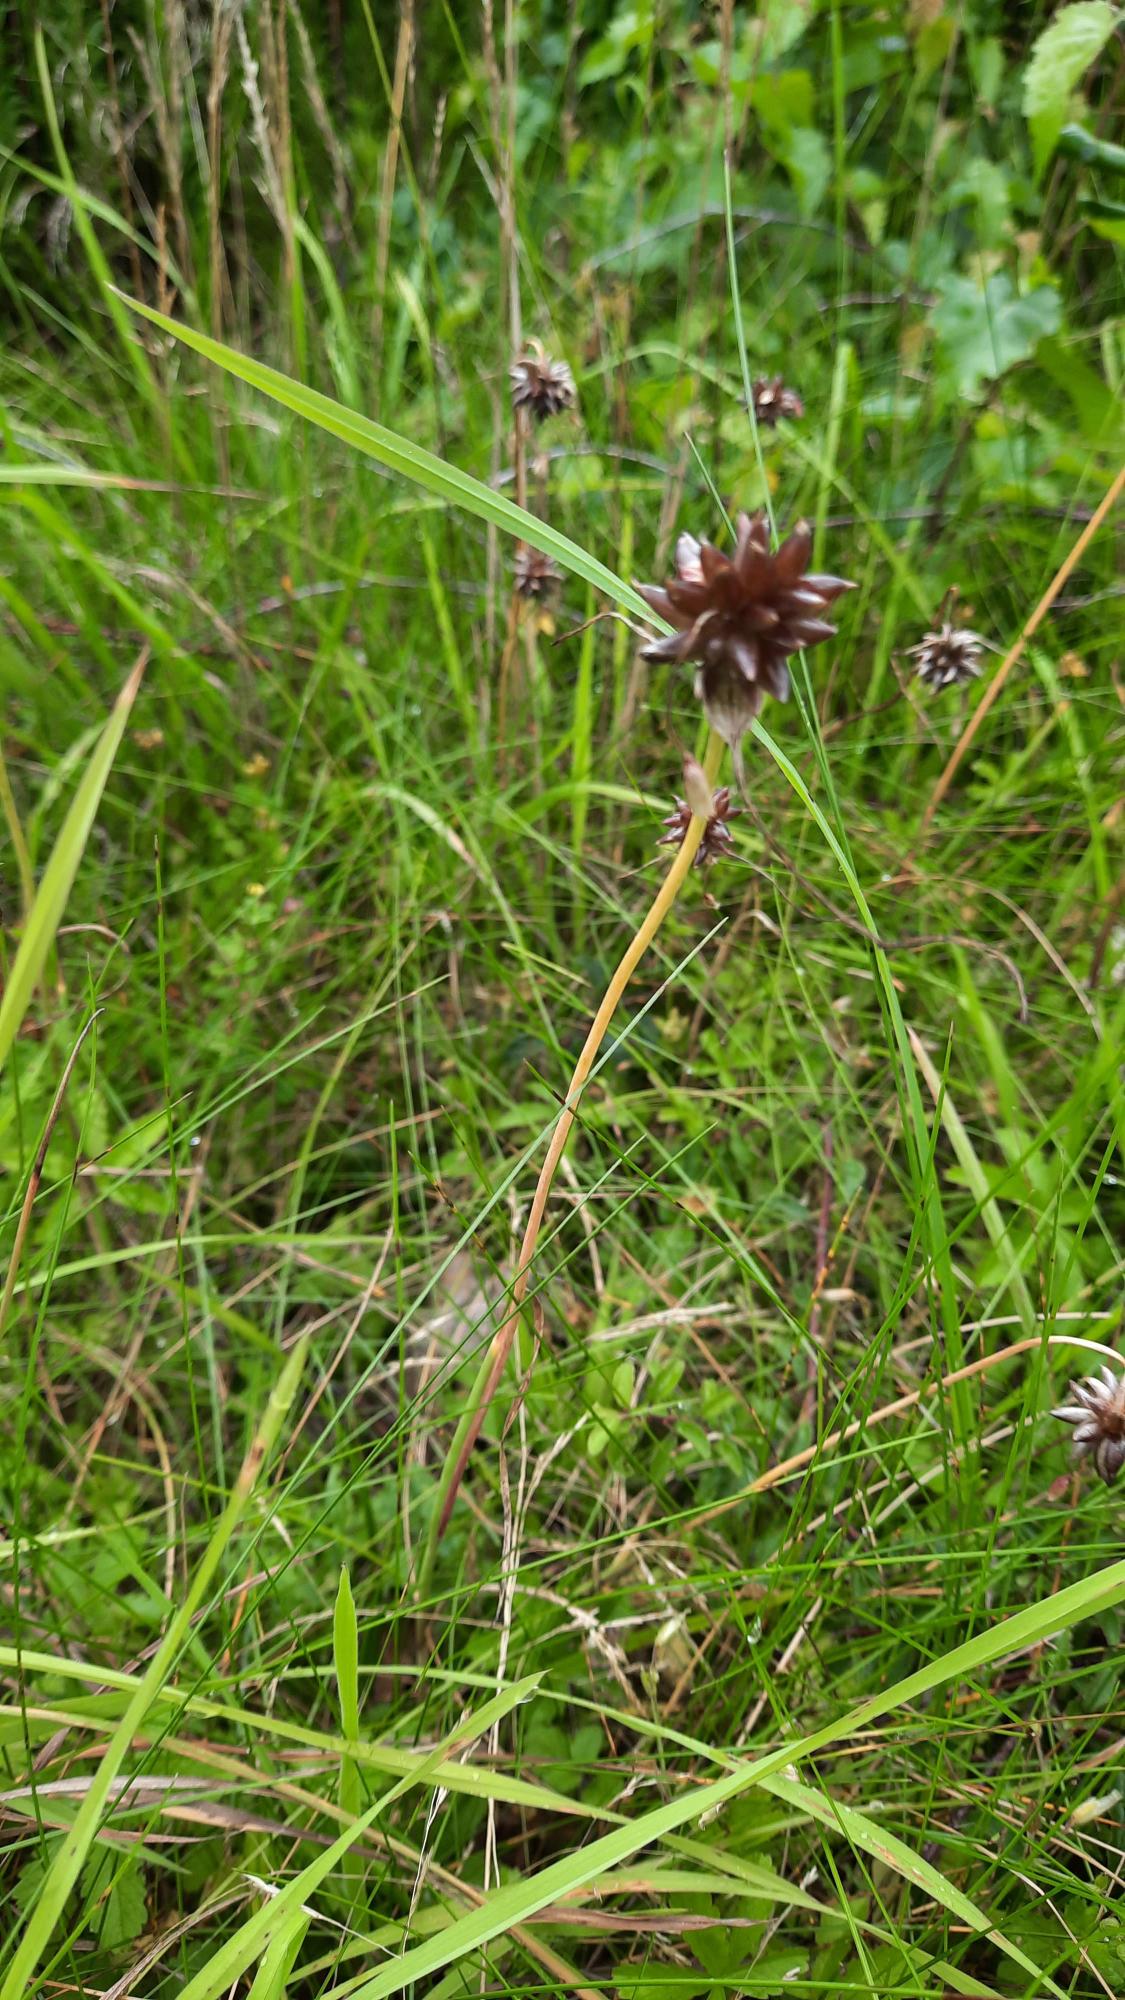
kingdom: Plantae
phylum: Tracheophyta
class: Liliopsida
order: Asparagales
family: Amaryllidaceae
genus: Allium
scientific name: Allium oleraceum
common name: Vild løg
